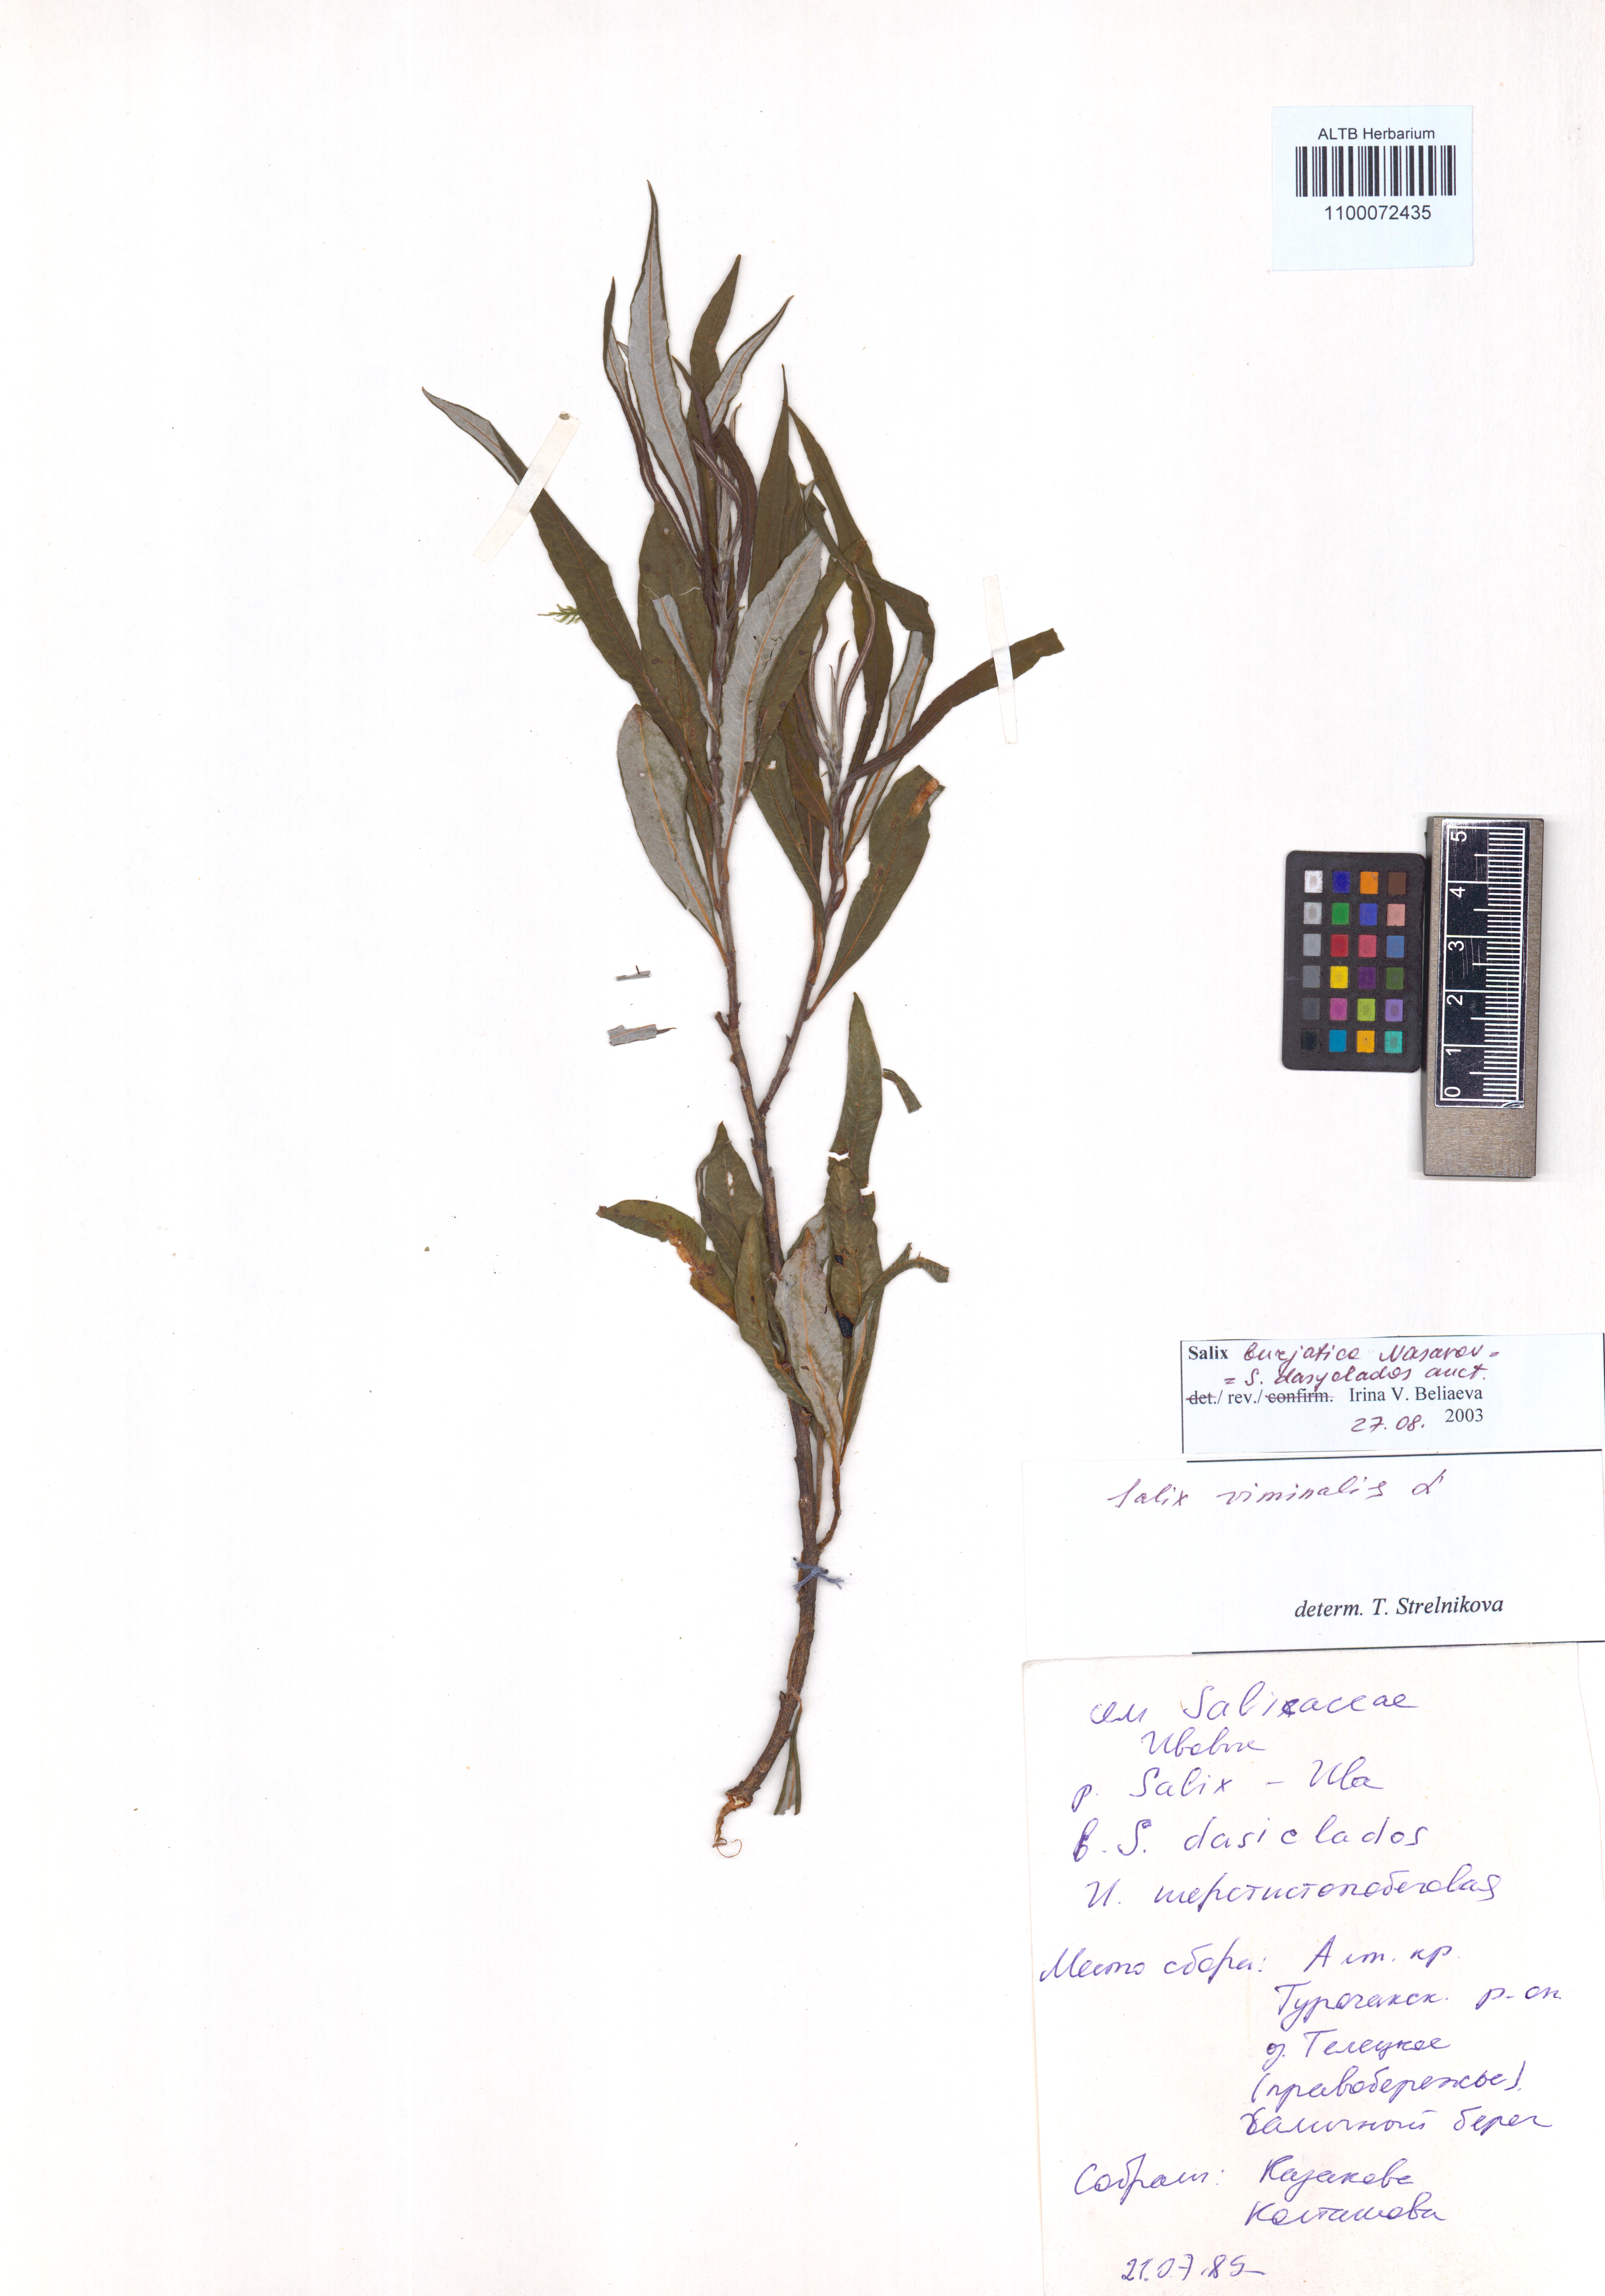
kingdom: Plantae
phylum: Tracheophyta
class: Magnoliopsida
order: Malpighiales
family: Salicaceae
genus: Salix
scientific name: Salix gmelinii
